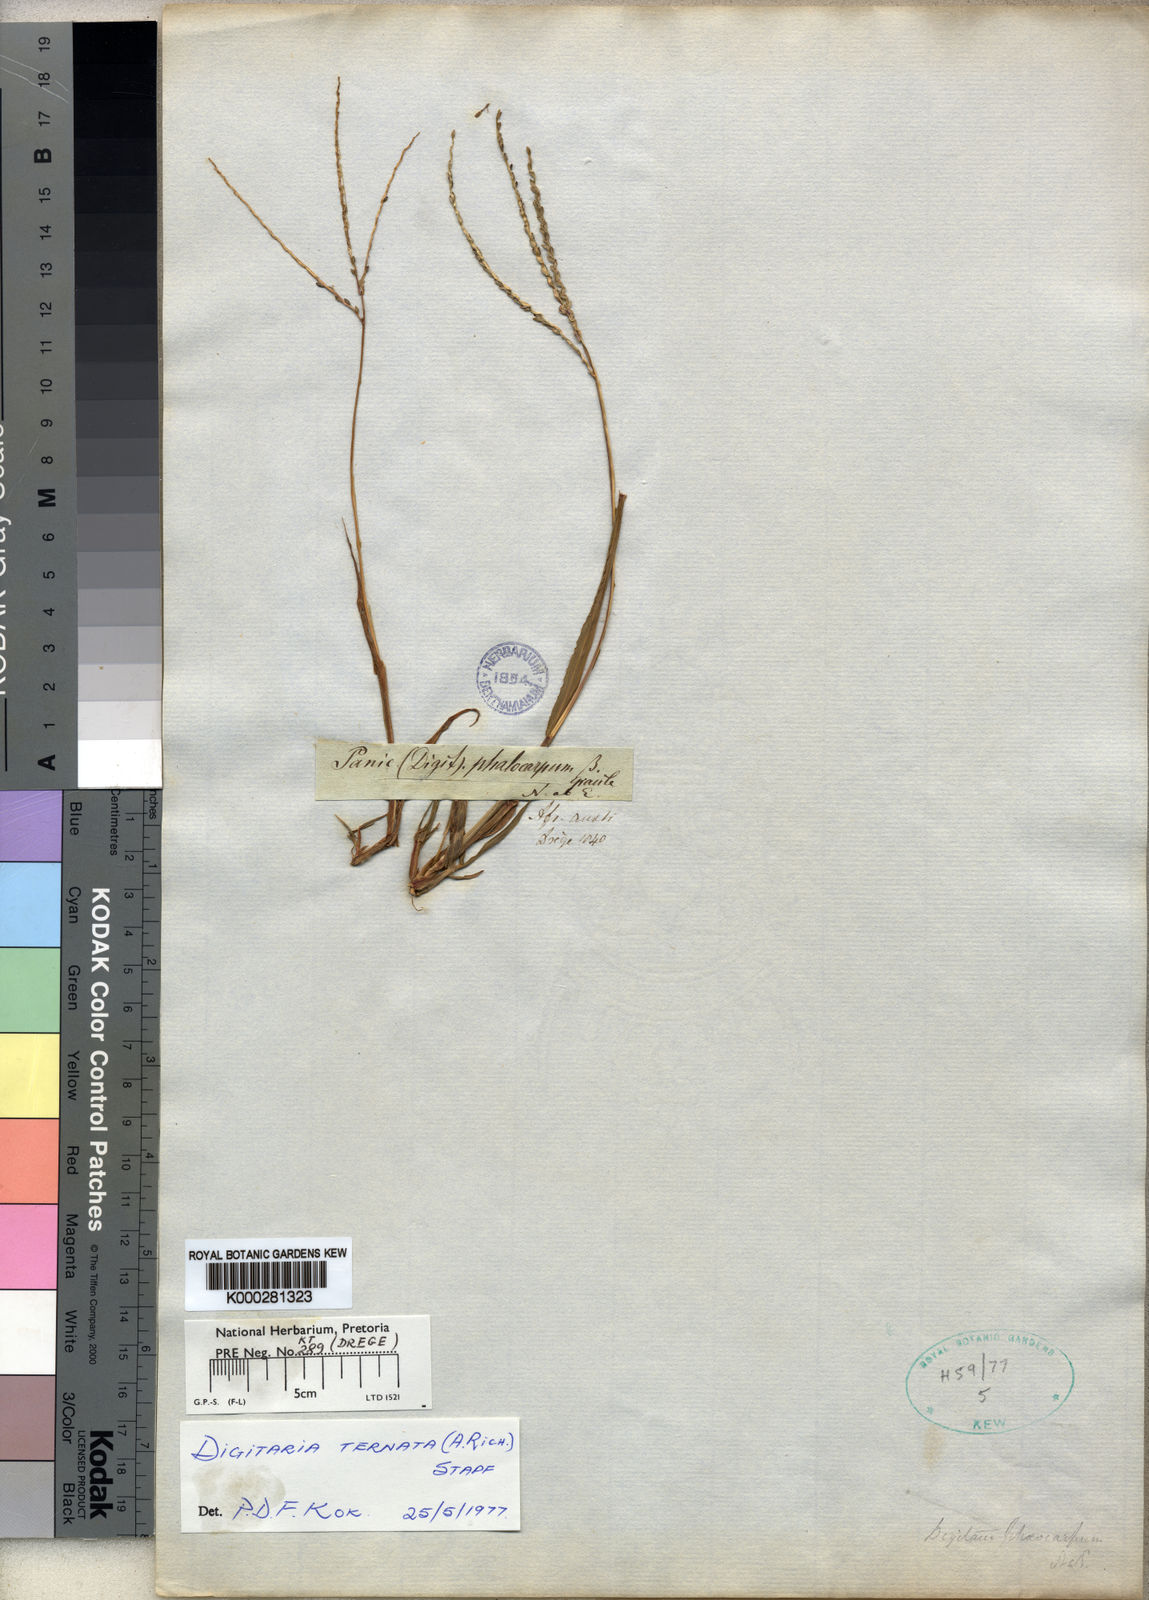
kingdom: Plantae
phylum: Tracheophyta
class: Liliopsida
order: Poales
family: Poaceae
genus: Digitaria
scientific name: Digitaria ternata
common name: Blackseed crabgrass
